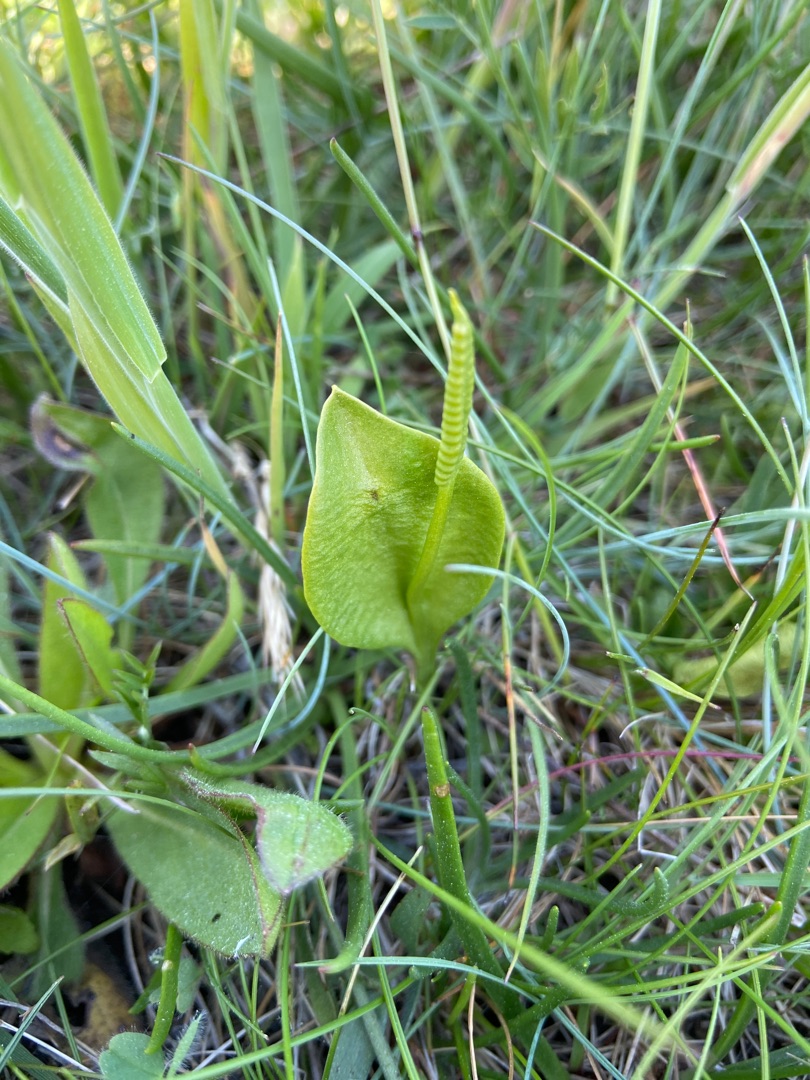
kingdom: Plantae
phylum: Tracheophyta
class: Polypodiopsida
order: Ophioglossales
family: Ophioglossaceae
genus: Ophioglossum
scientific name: Ophioglossum vulgatum
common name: Slangetunge
